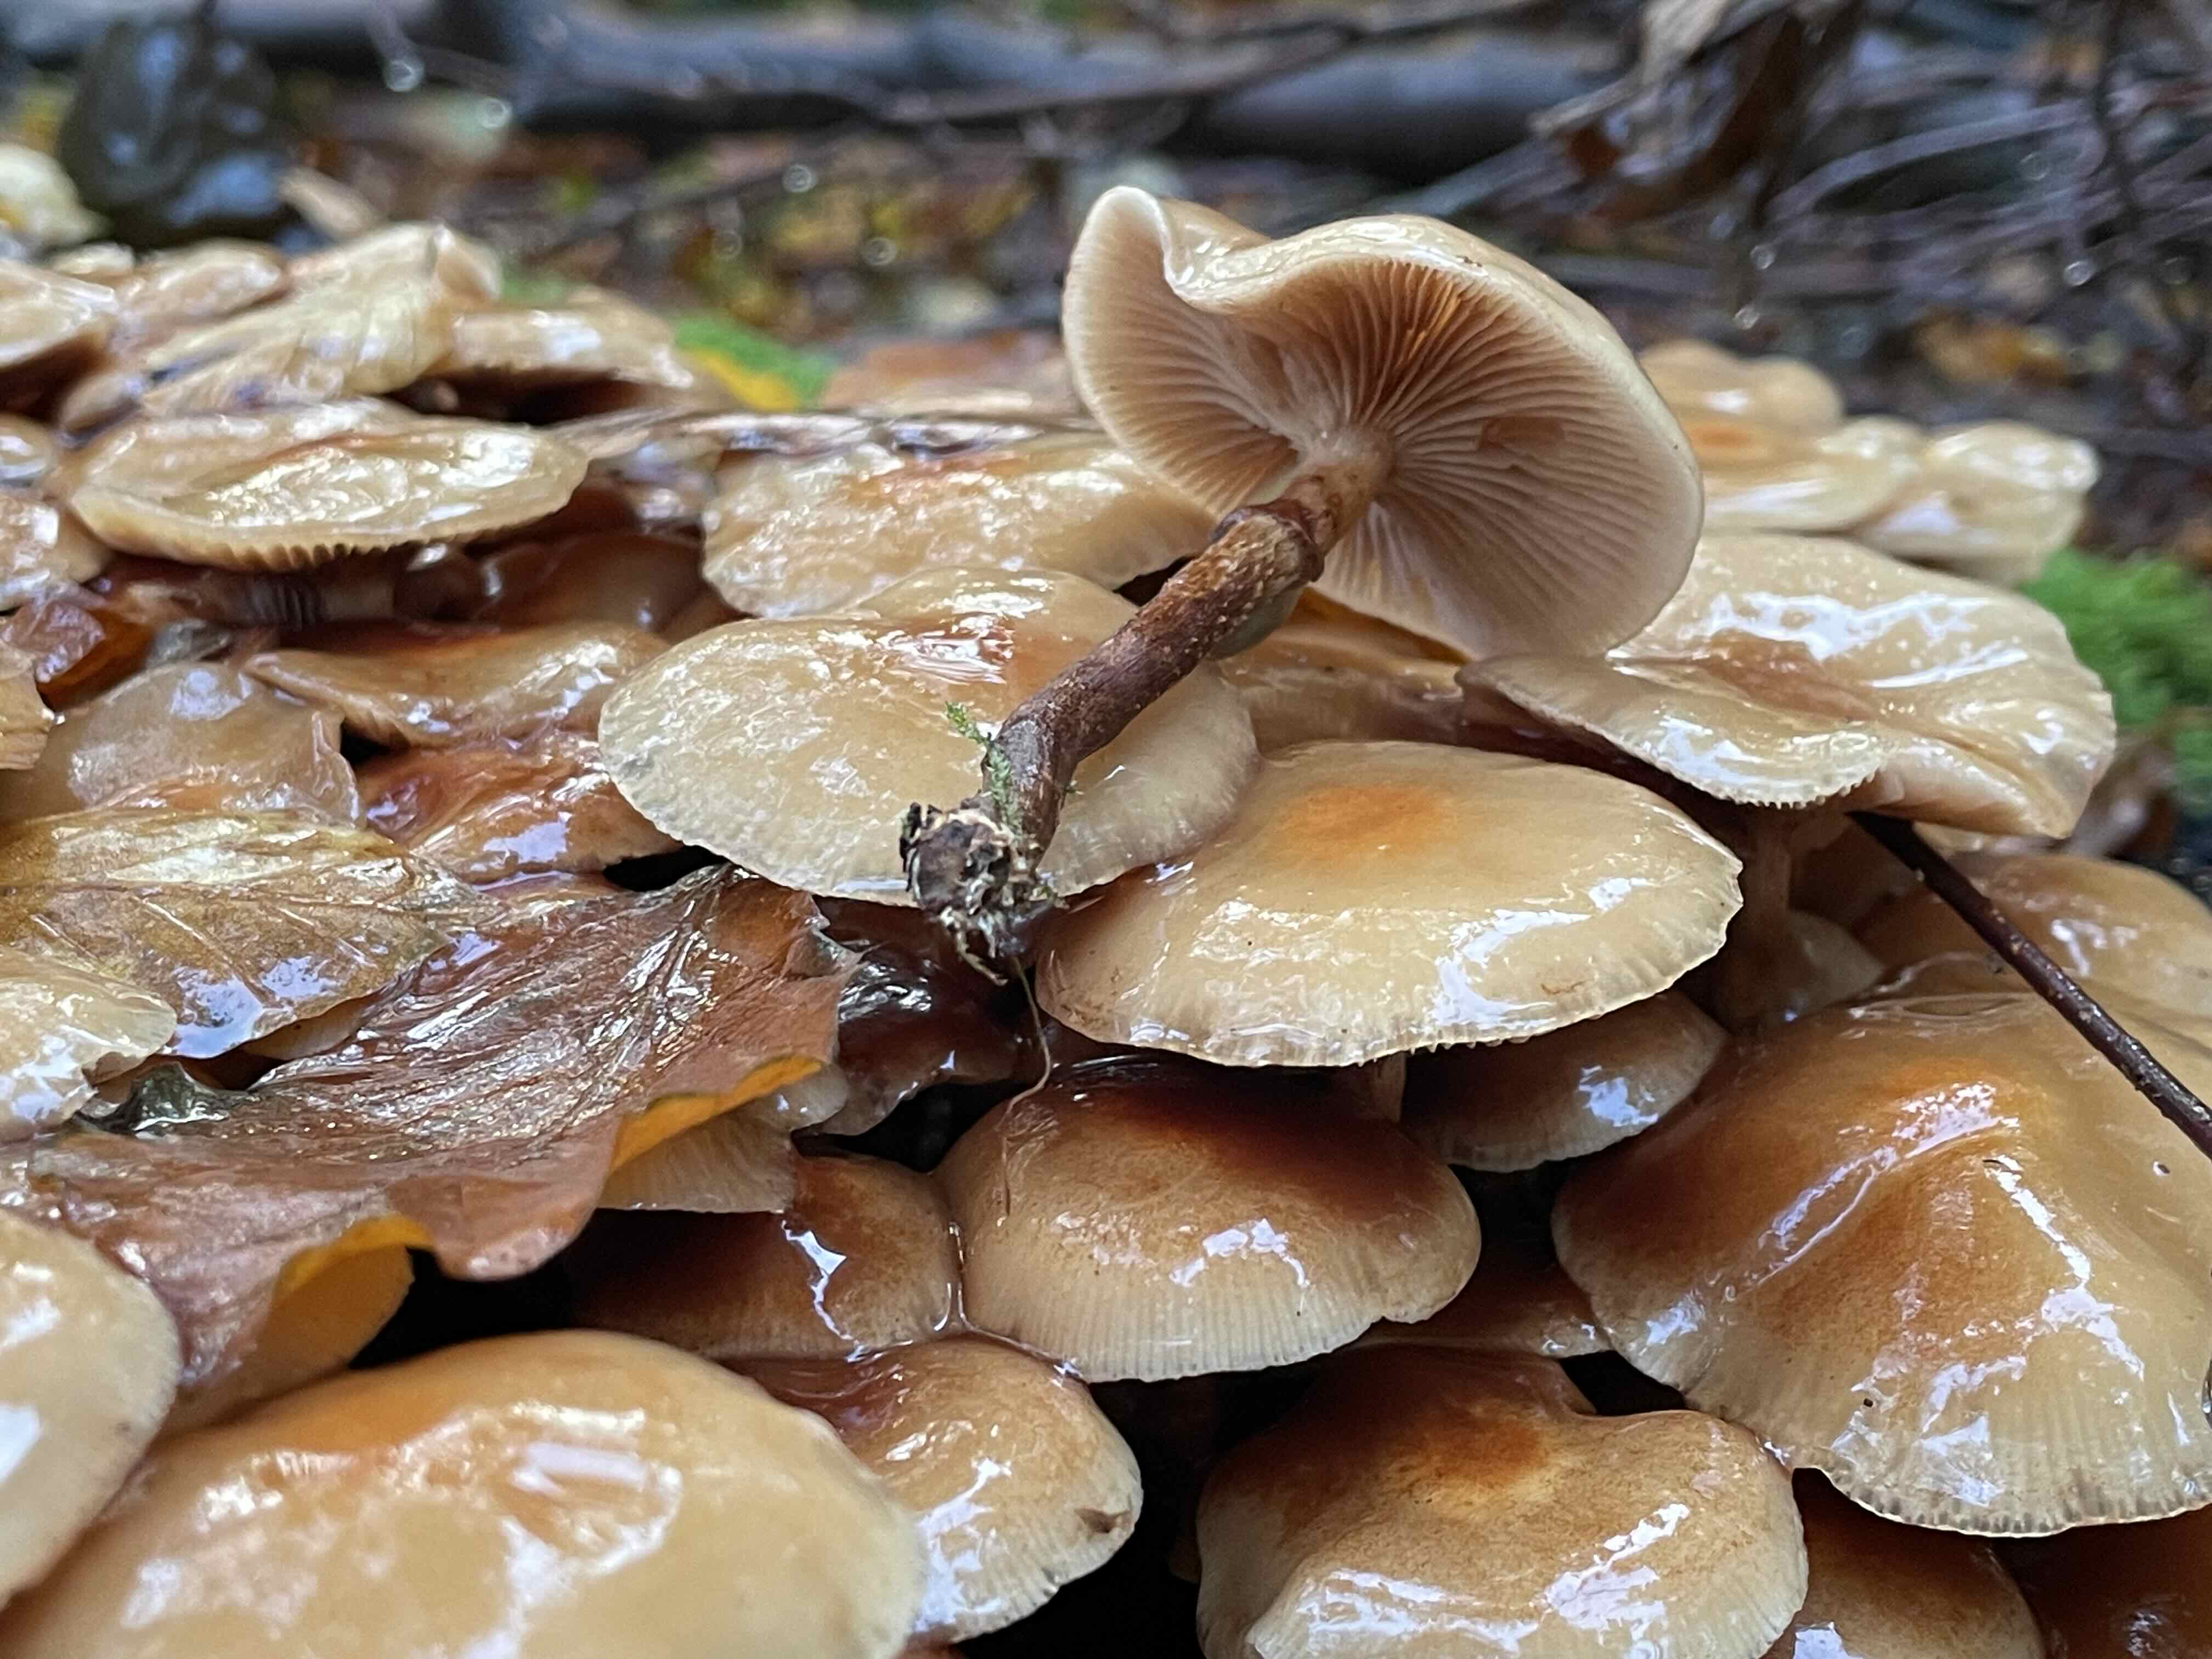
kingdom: Fungi
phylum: Basidiomycota
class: Agaricomycetes
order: Agaricales
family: Strophariaceae
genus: Kuehneromyces
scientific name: Kuehneromyces mutabilis
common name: foranderlig skælhat
